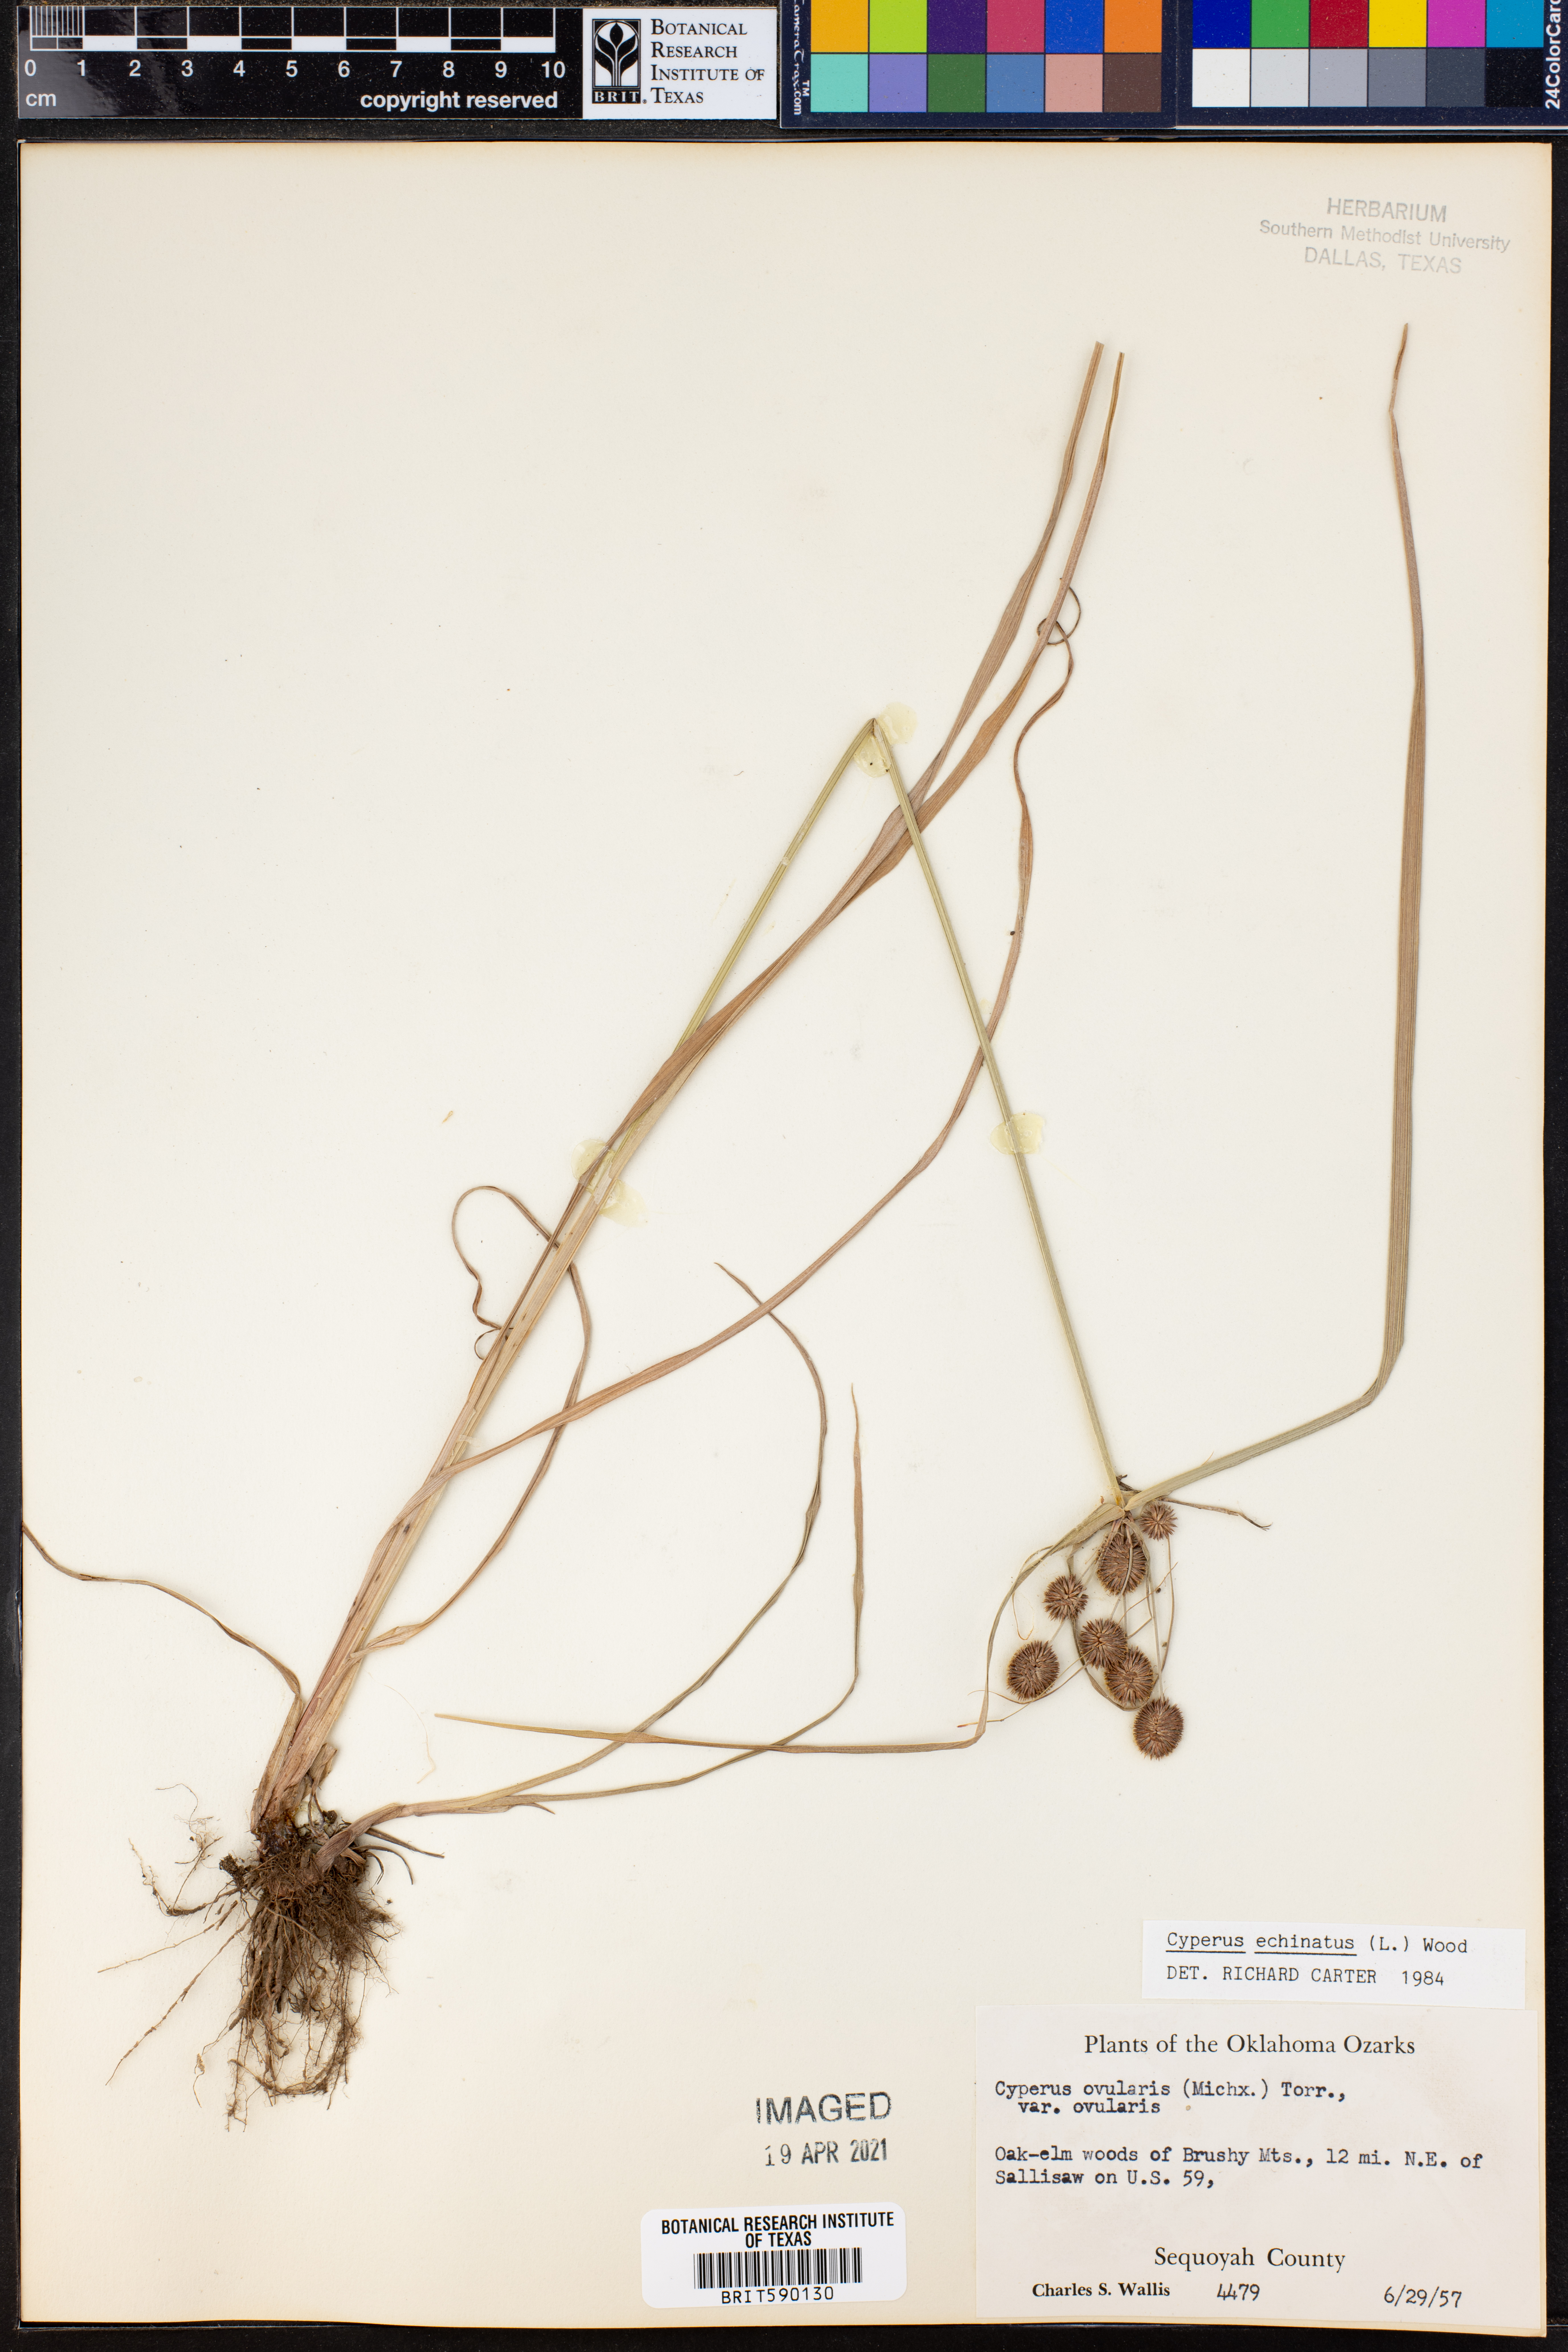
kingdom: Plantae
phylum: Tracheophyta
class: Liliopsida
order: Poales
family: Cyperaceae
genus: Cyperus
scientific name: Cyperus echinatus
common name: Teasel sedge
